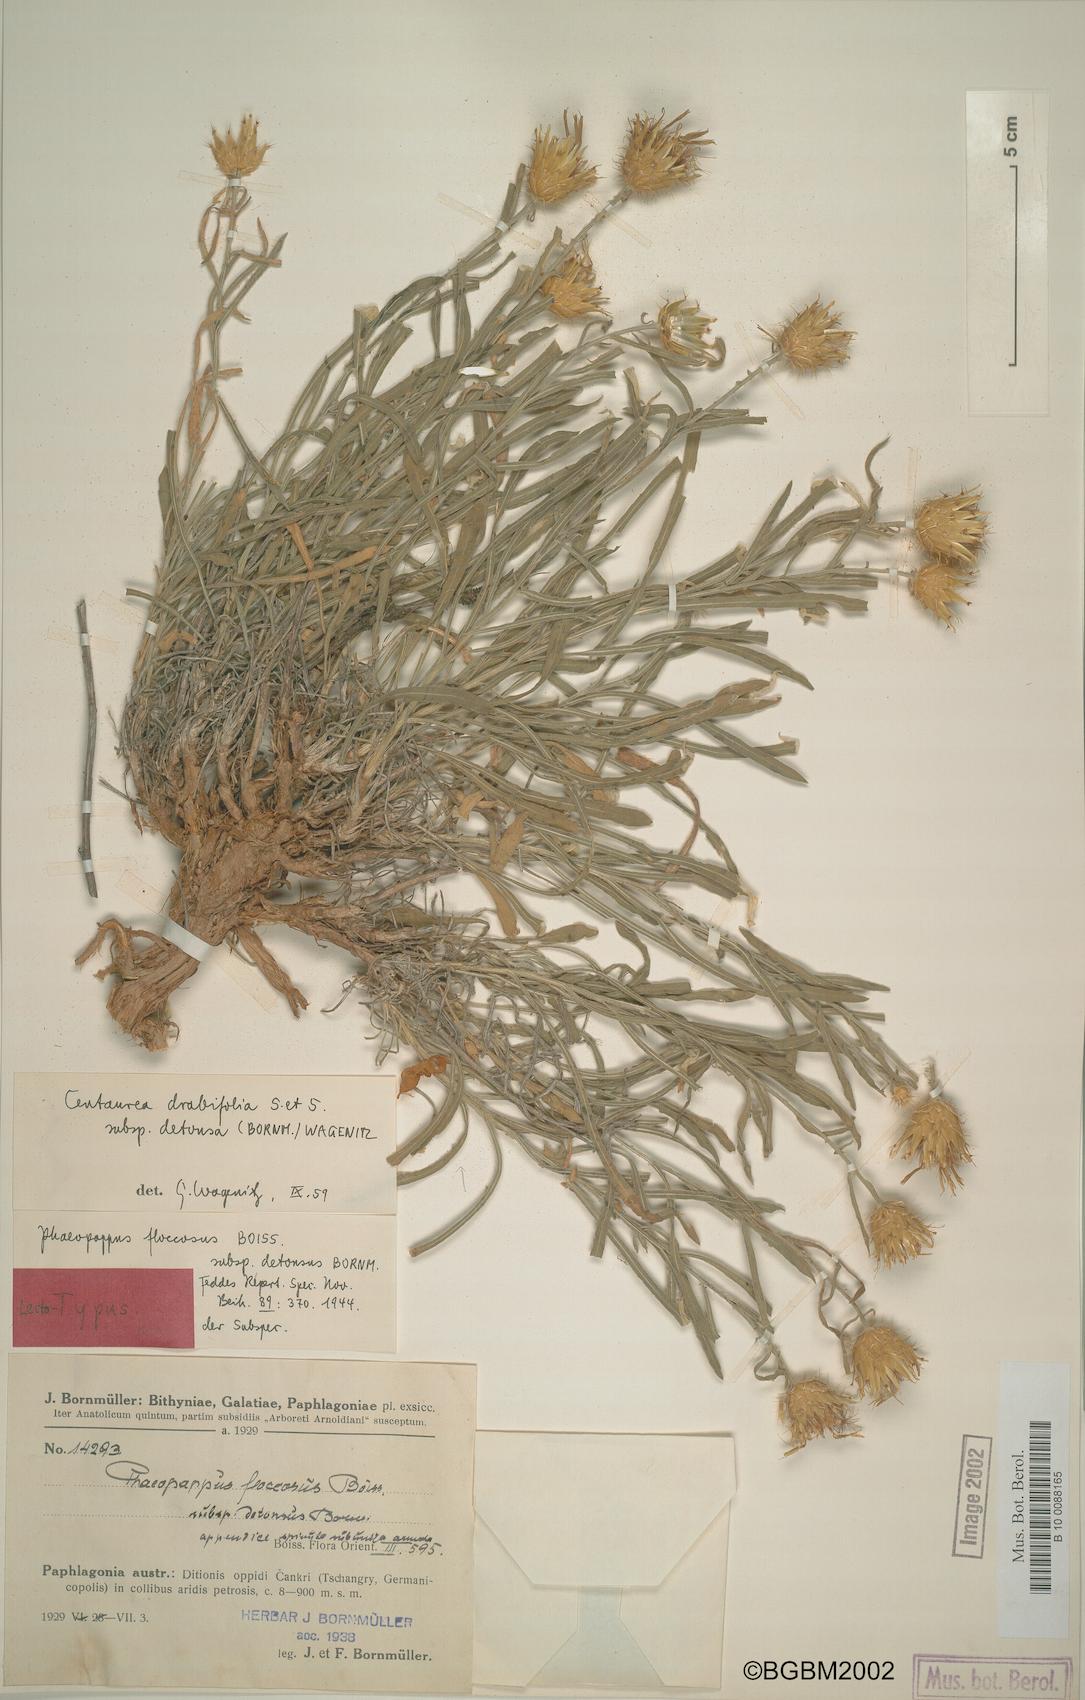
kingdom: Plantae
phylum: Tracheophyta
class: Magnoliopsida
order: Asterales
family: Asteraceae
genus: Centaurea
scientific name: Centaurea kotschyi
